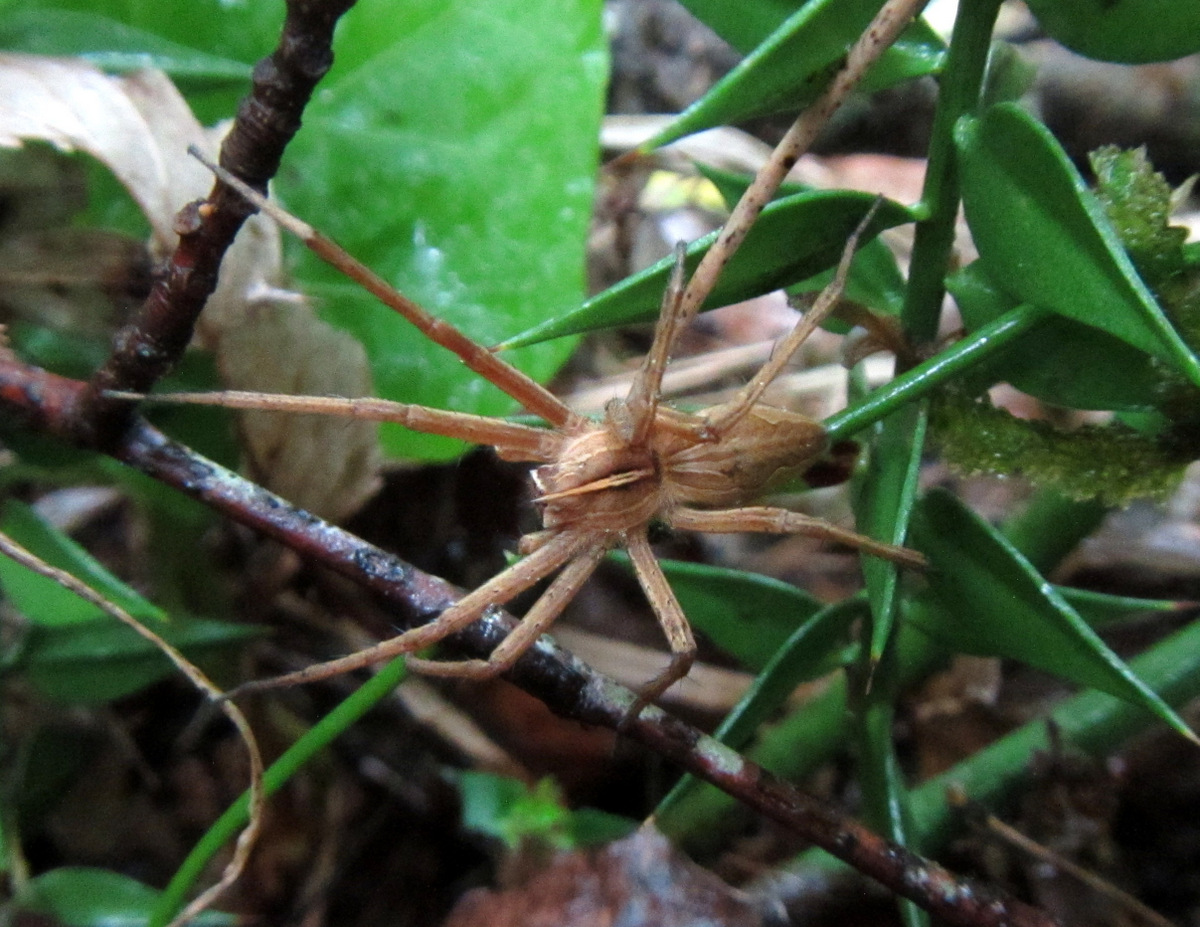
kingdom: Animalia
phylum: Arthropoda
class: Arachnida
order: Araneae
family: Pisauridae
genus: Pisaura
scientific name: Pisaura
